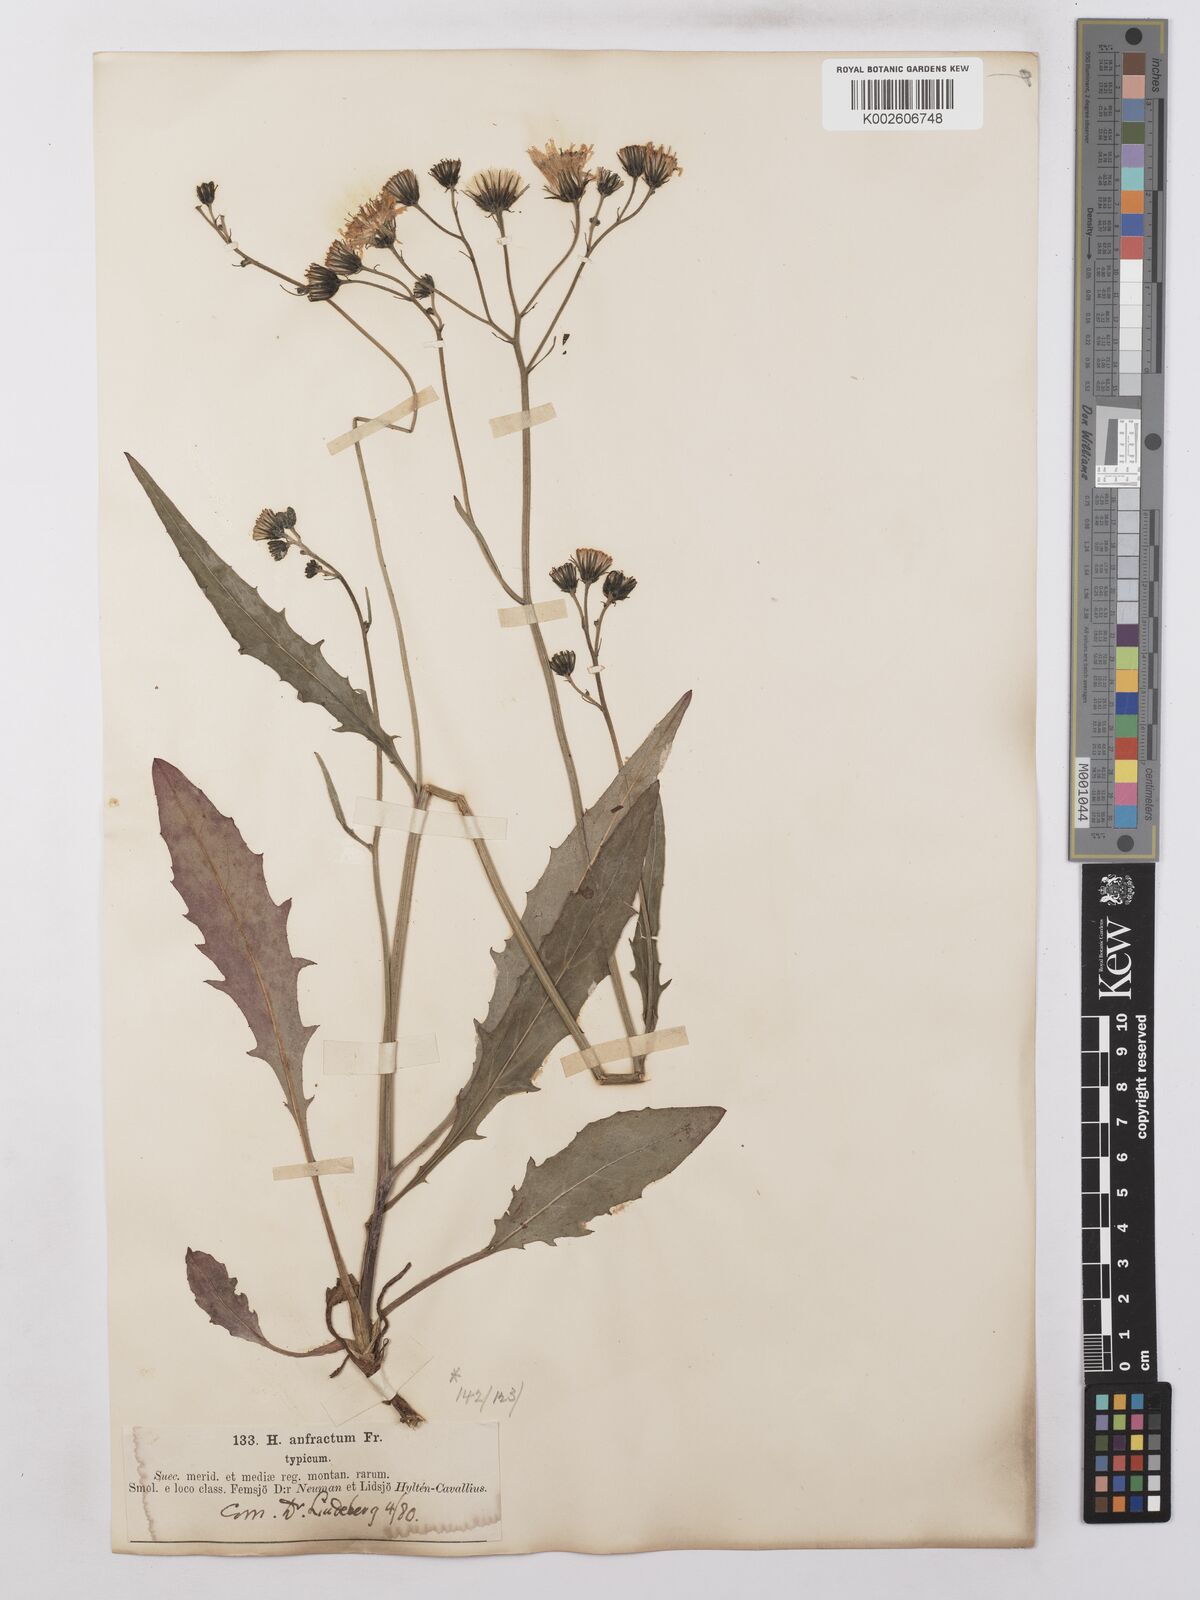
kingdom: Plantae
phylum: Tracheophyta
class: Magnoliopsida
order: Asterales
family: Asteraceae
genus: Hieracium
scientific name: Hieracium lachenalii
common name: Common hawkweed
